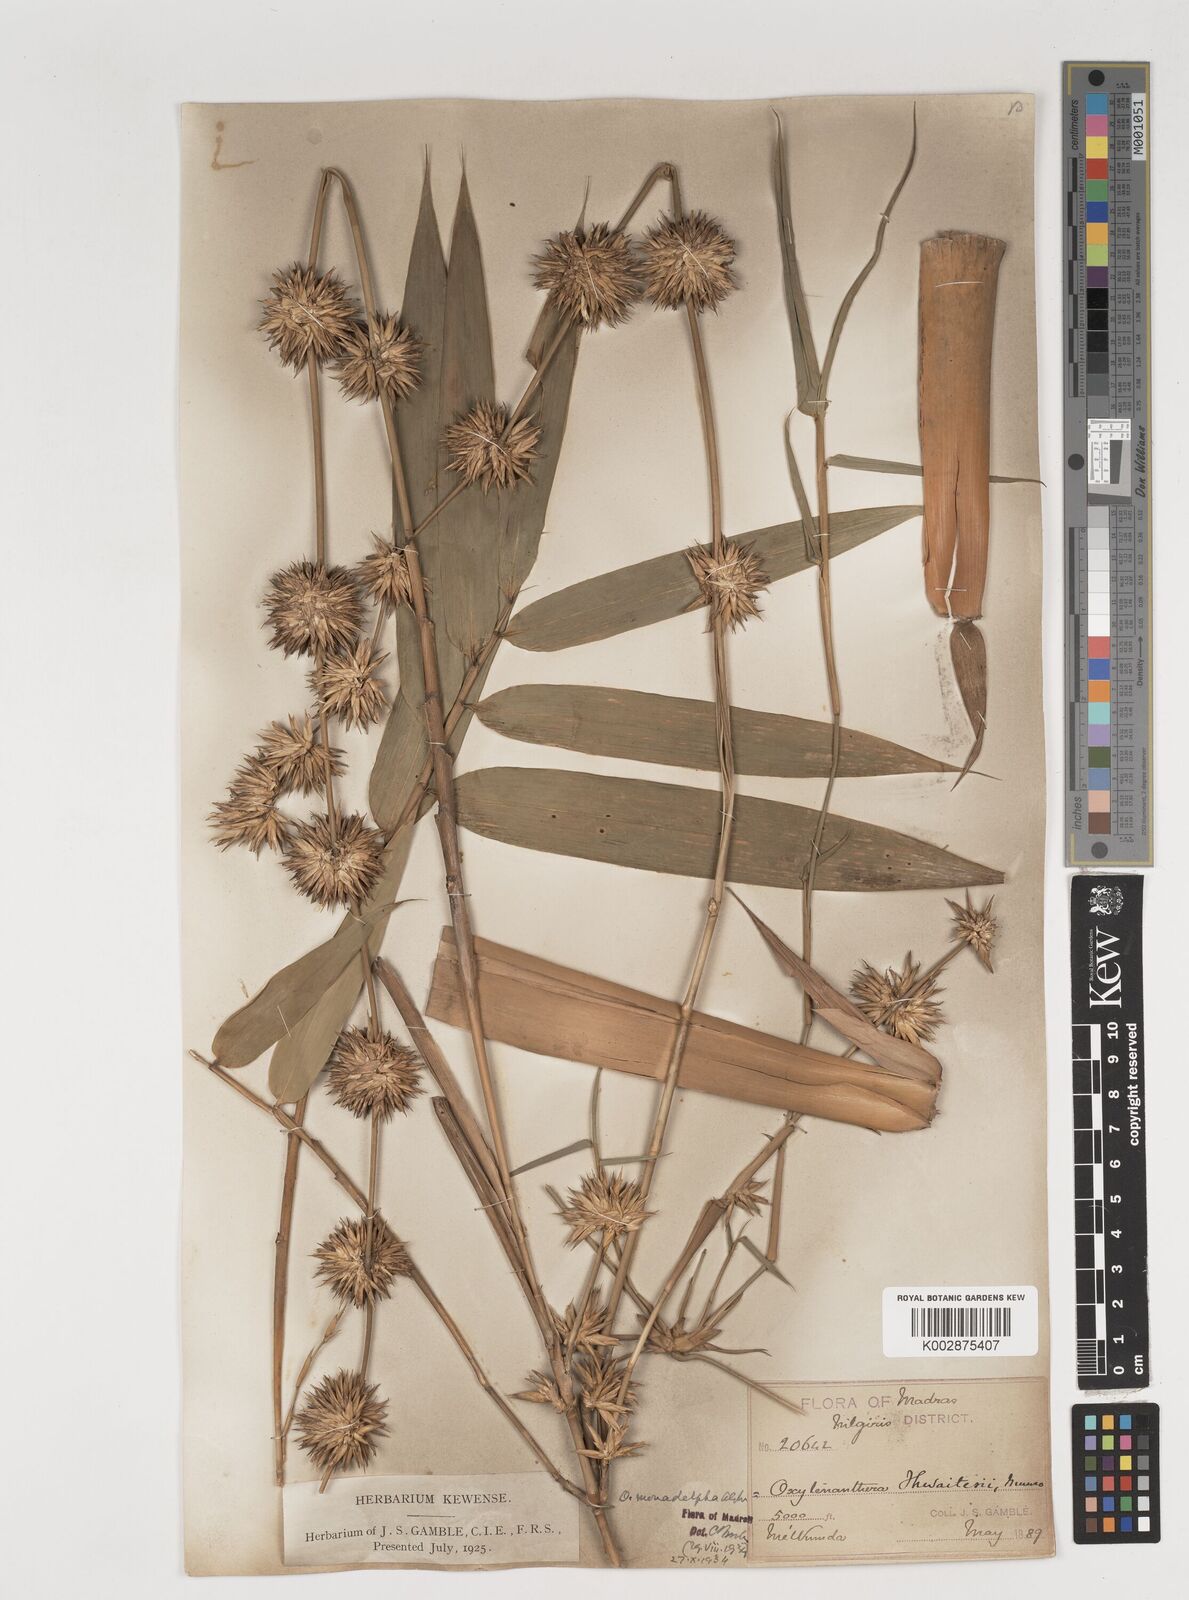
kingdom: Plantae
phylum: Tracheophyta
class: Liliopsida
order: Poales
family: Poaceae
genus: Pseudoxytenanthera
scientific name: Pseudoxytenanthera monadelpha
